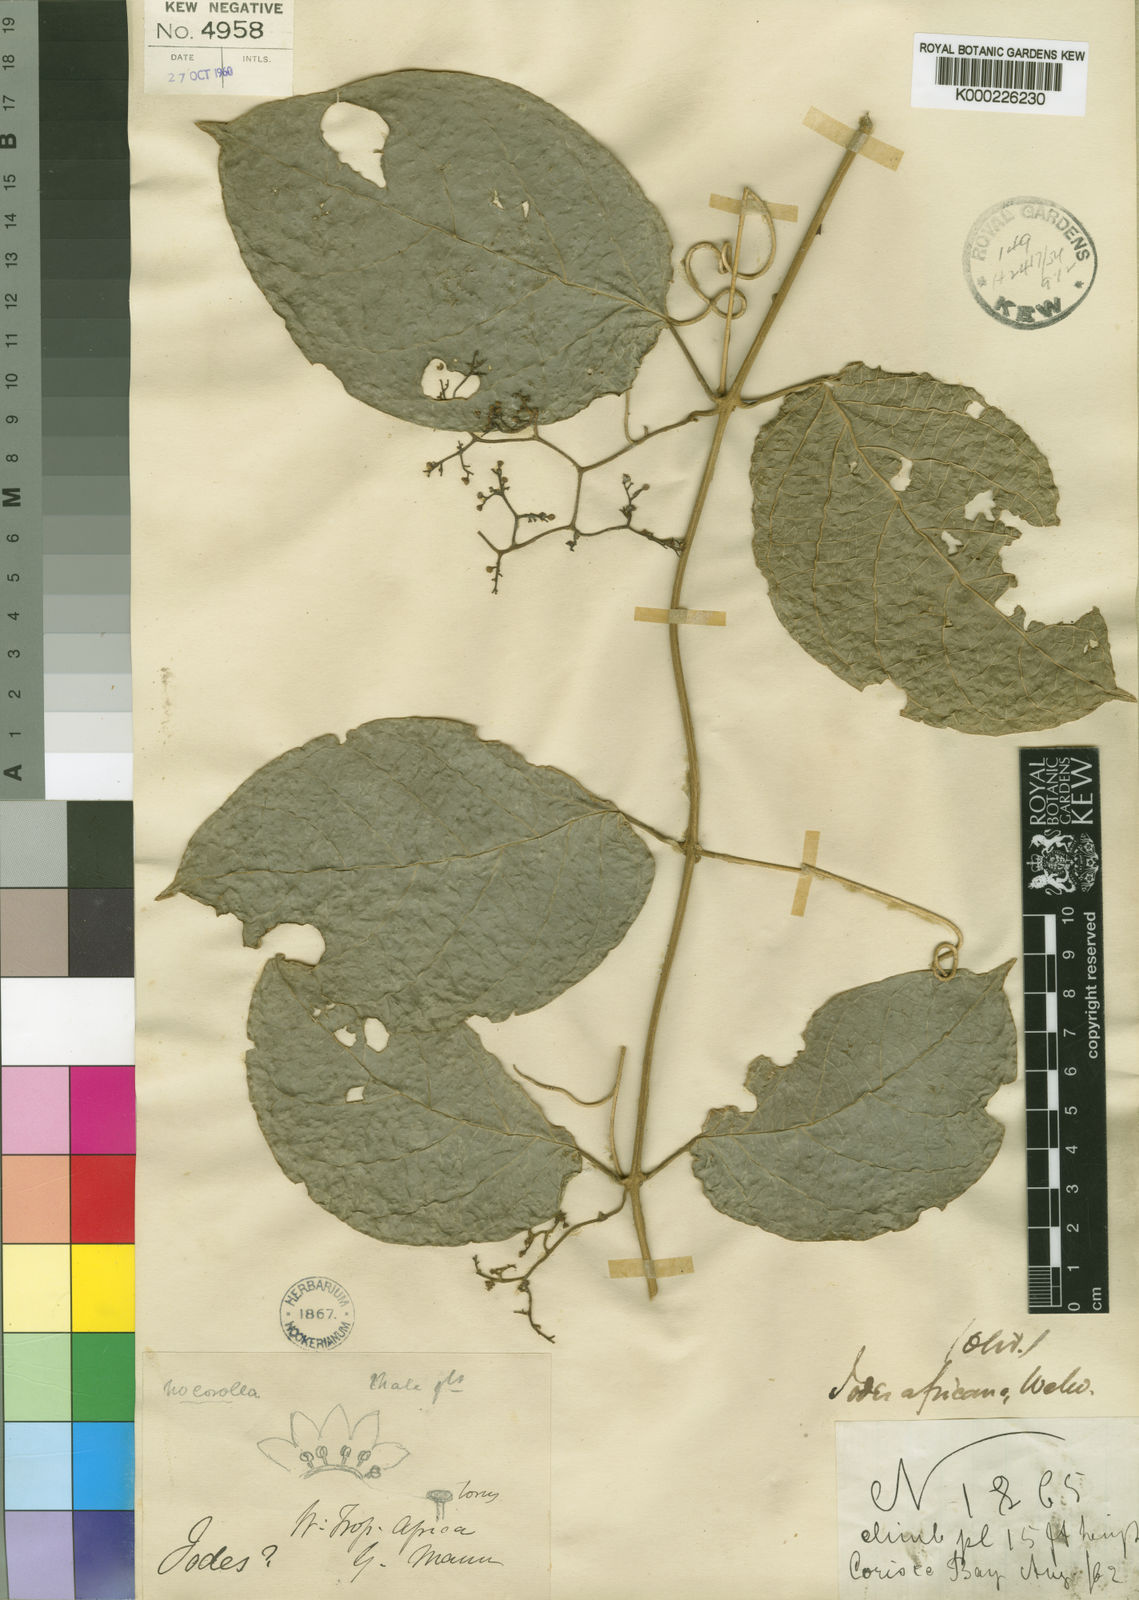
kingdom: Plantae
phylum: Tracheophyta
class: Magnoliopsida
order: Icacinales
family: Icacinaceae
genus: Iodes
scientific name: Iodes africana
